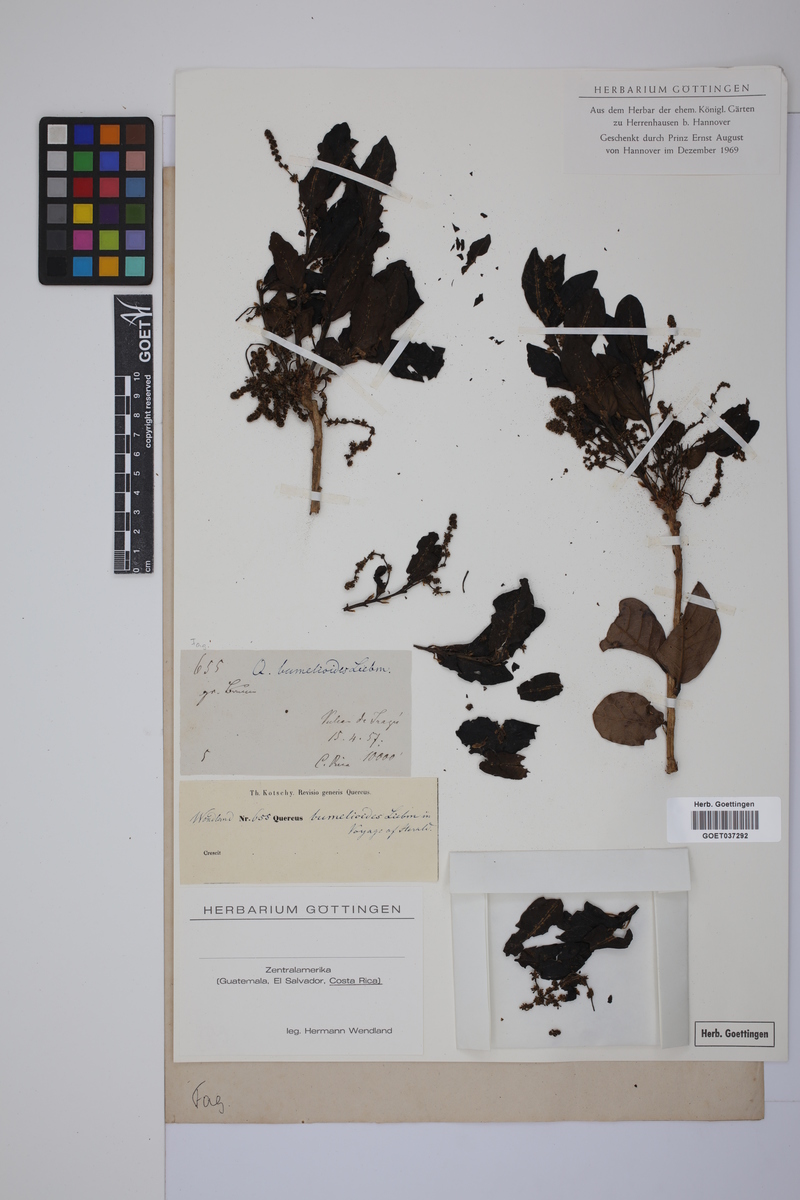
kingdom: Plantae
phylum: Tracheophyta
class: Magnoliopsida
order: Fagales
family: Fagaceae
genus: Quercus
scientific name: Quercus sapotifolia
